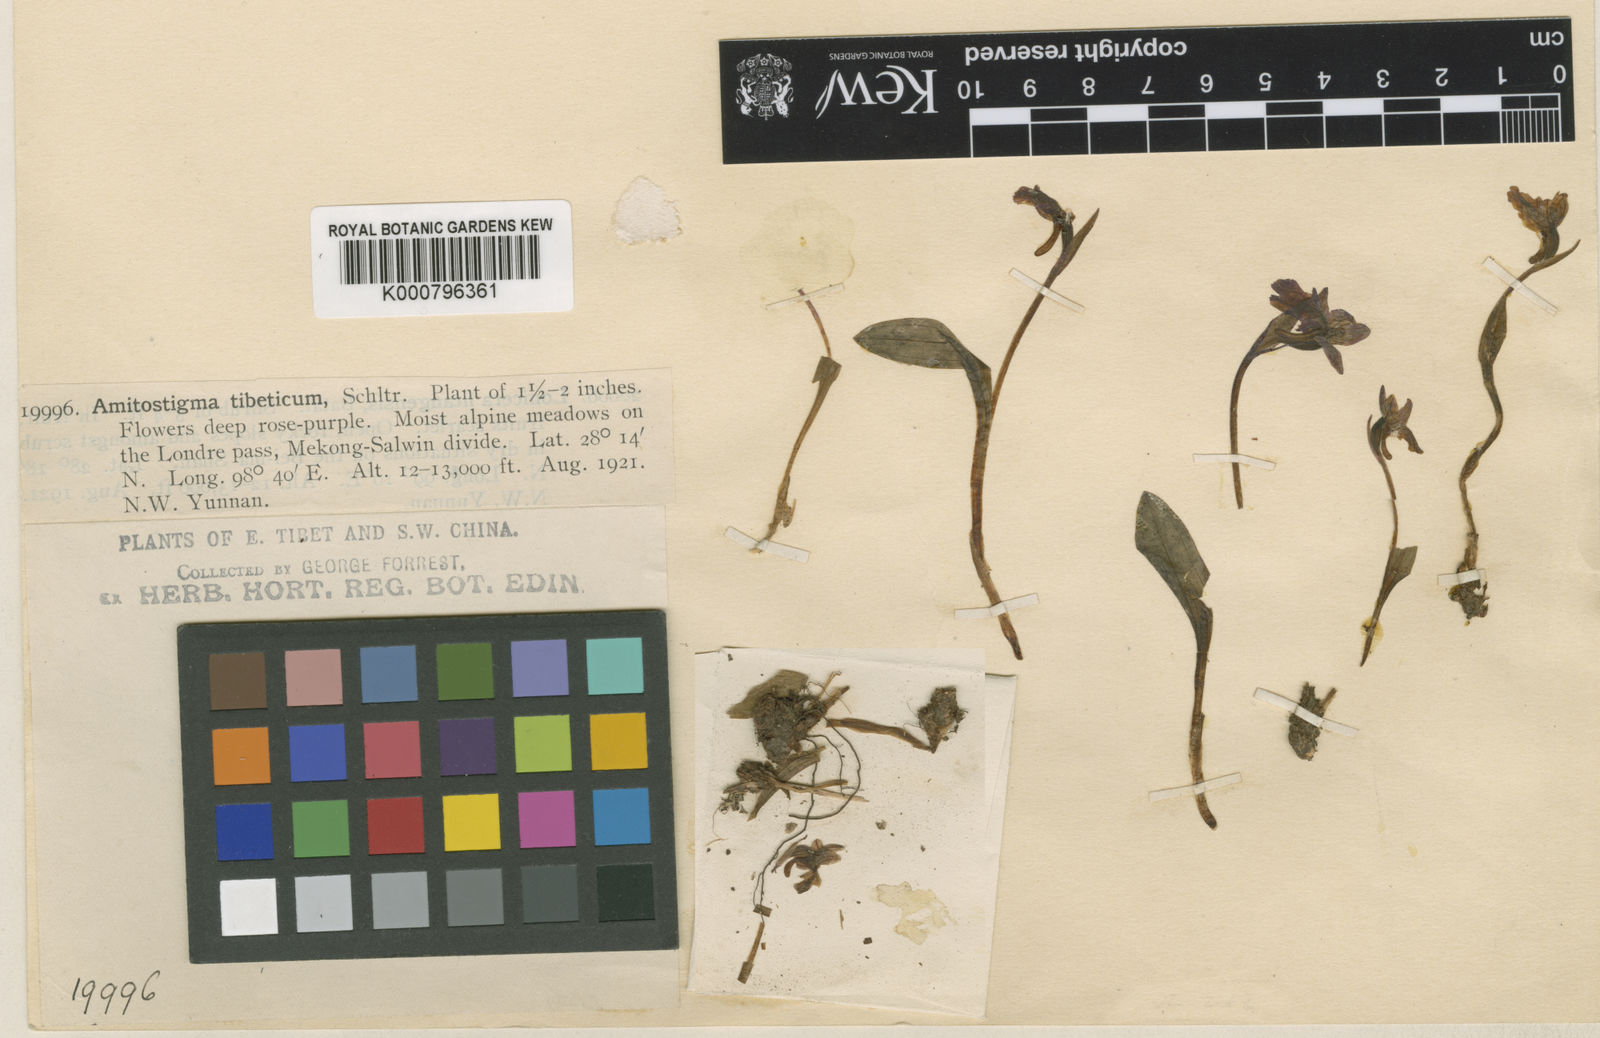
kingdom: Plantae
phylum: Tracheophyta
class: Liliopsida
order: Asparagales
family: Orchidaceae
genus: Hemipilia
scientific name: Hemipilia tibetica
